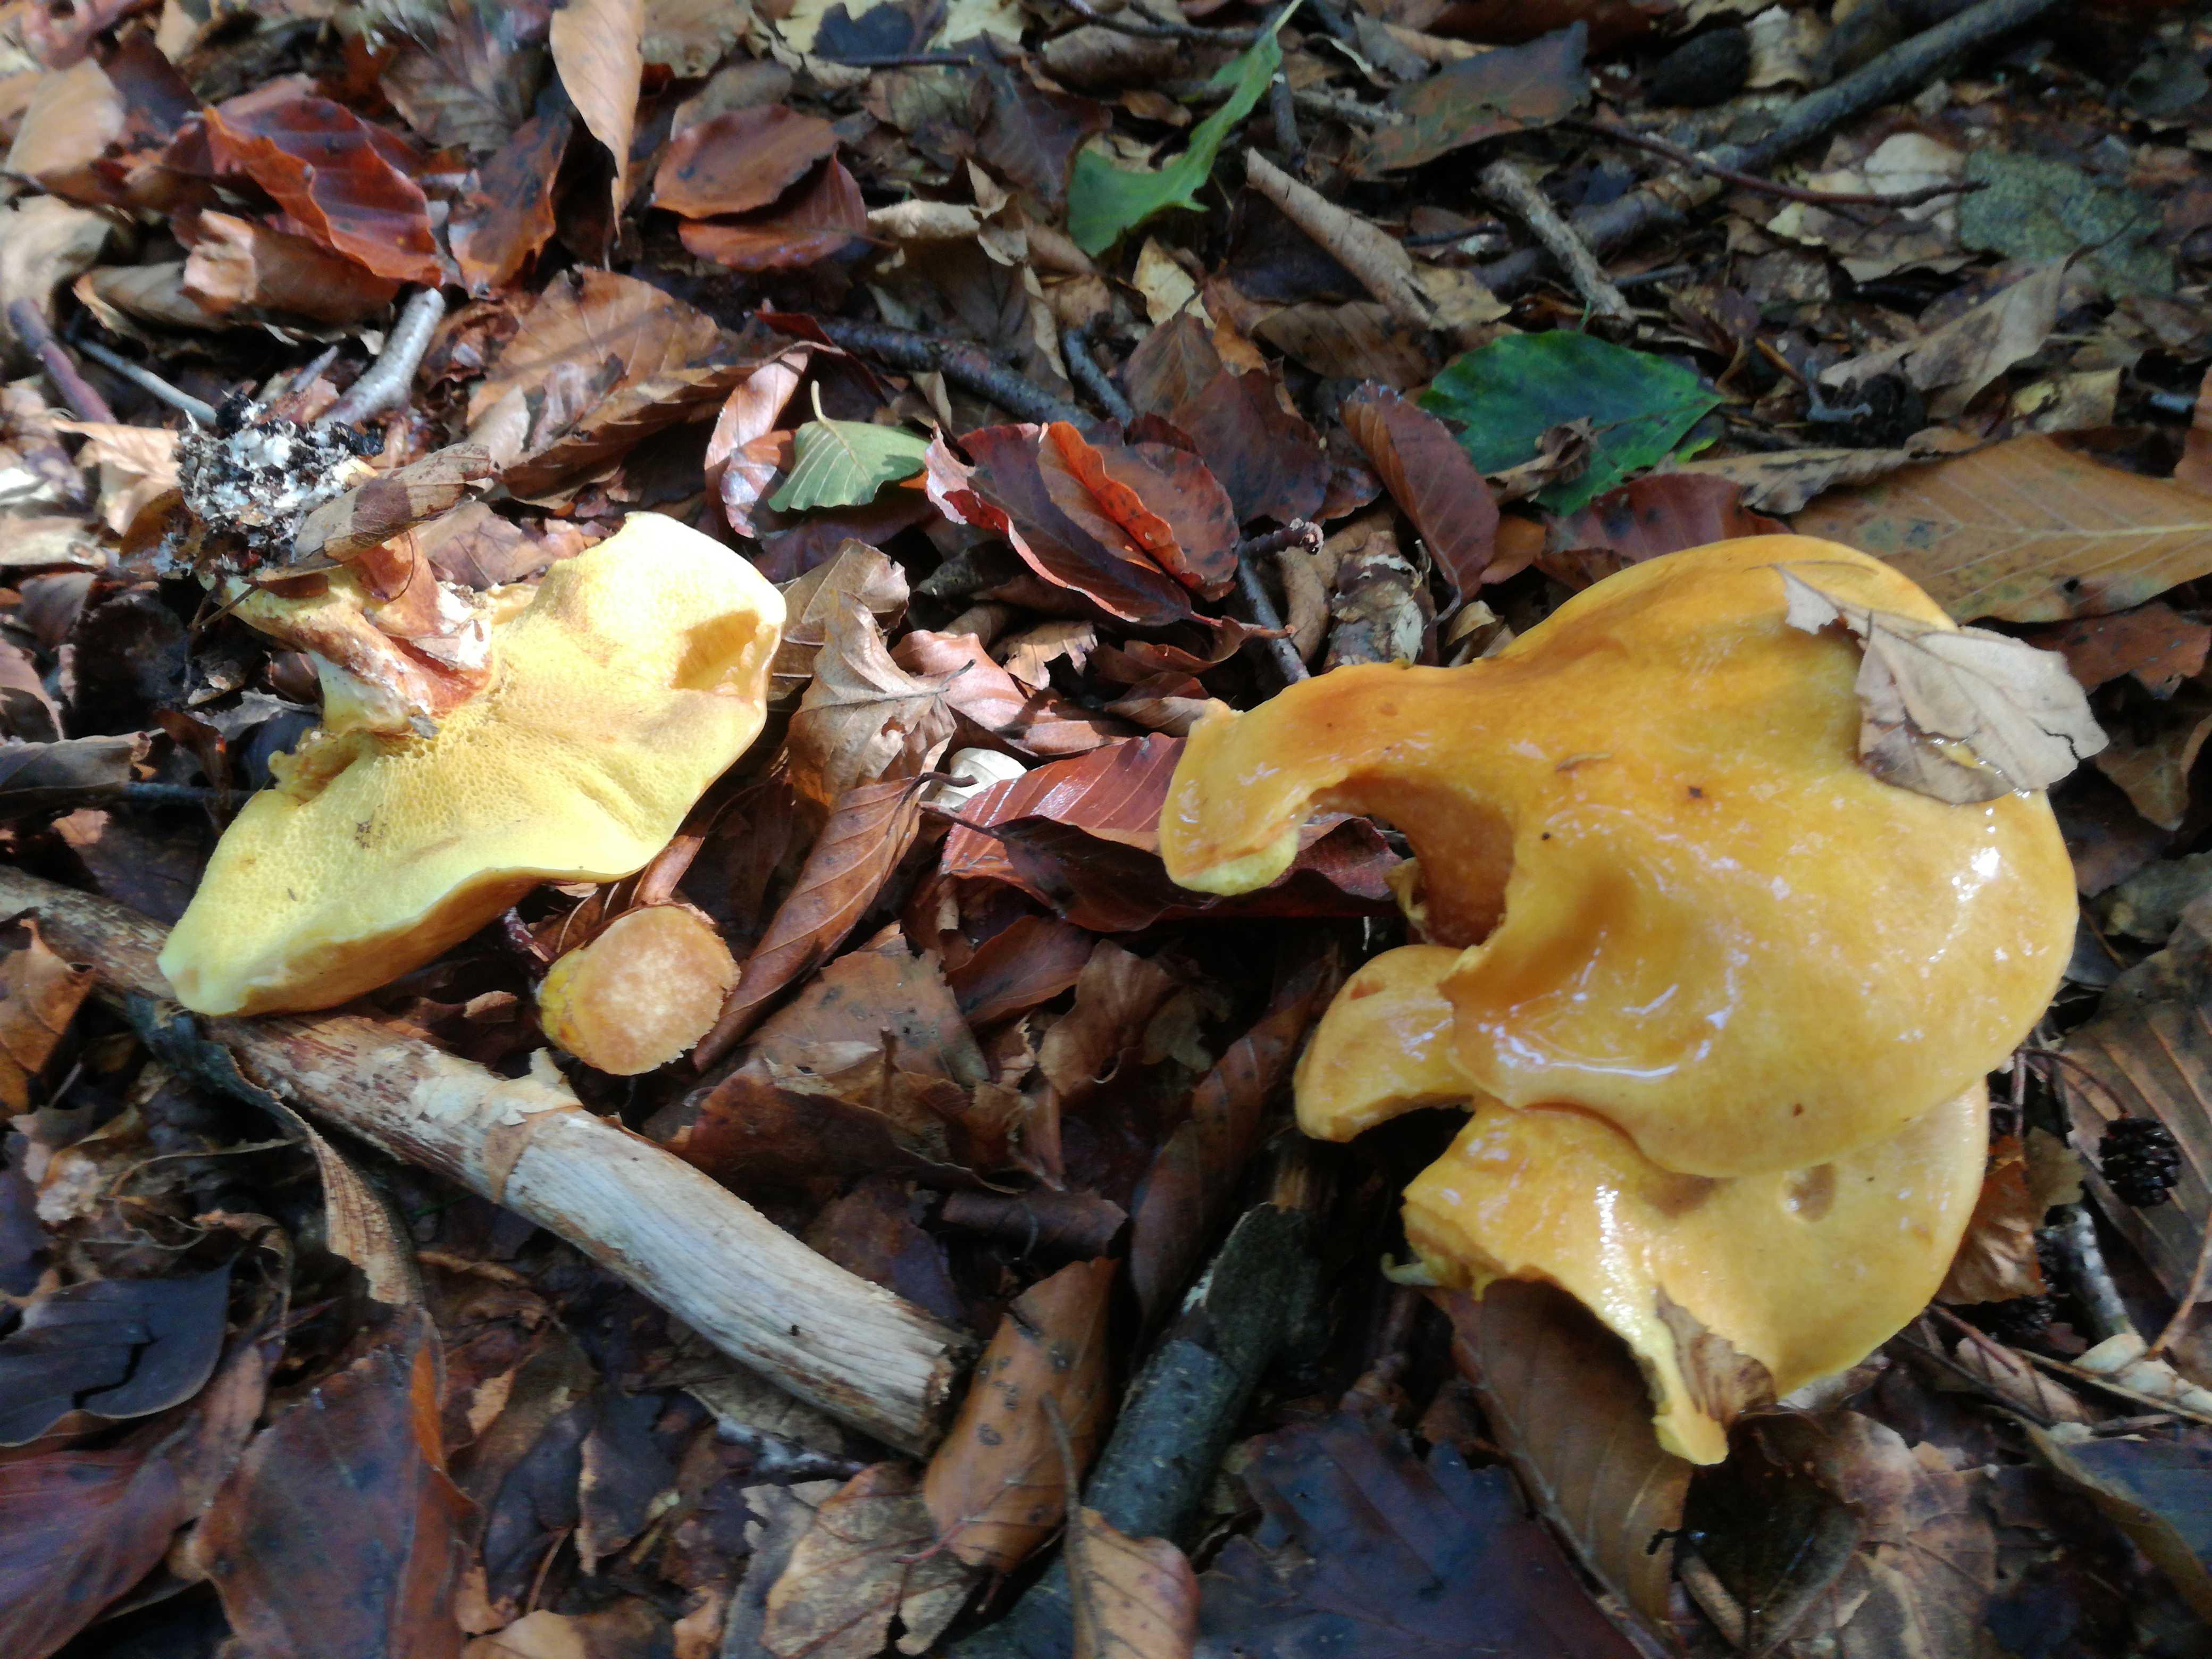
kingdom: Fungi
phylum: Basidiomycota
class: Agaricomycetes
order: Boletales
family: Suillaceae
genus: Suillus
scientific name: Suillus grevillei
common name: lærke-slimrørhat
